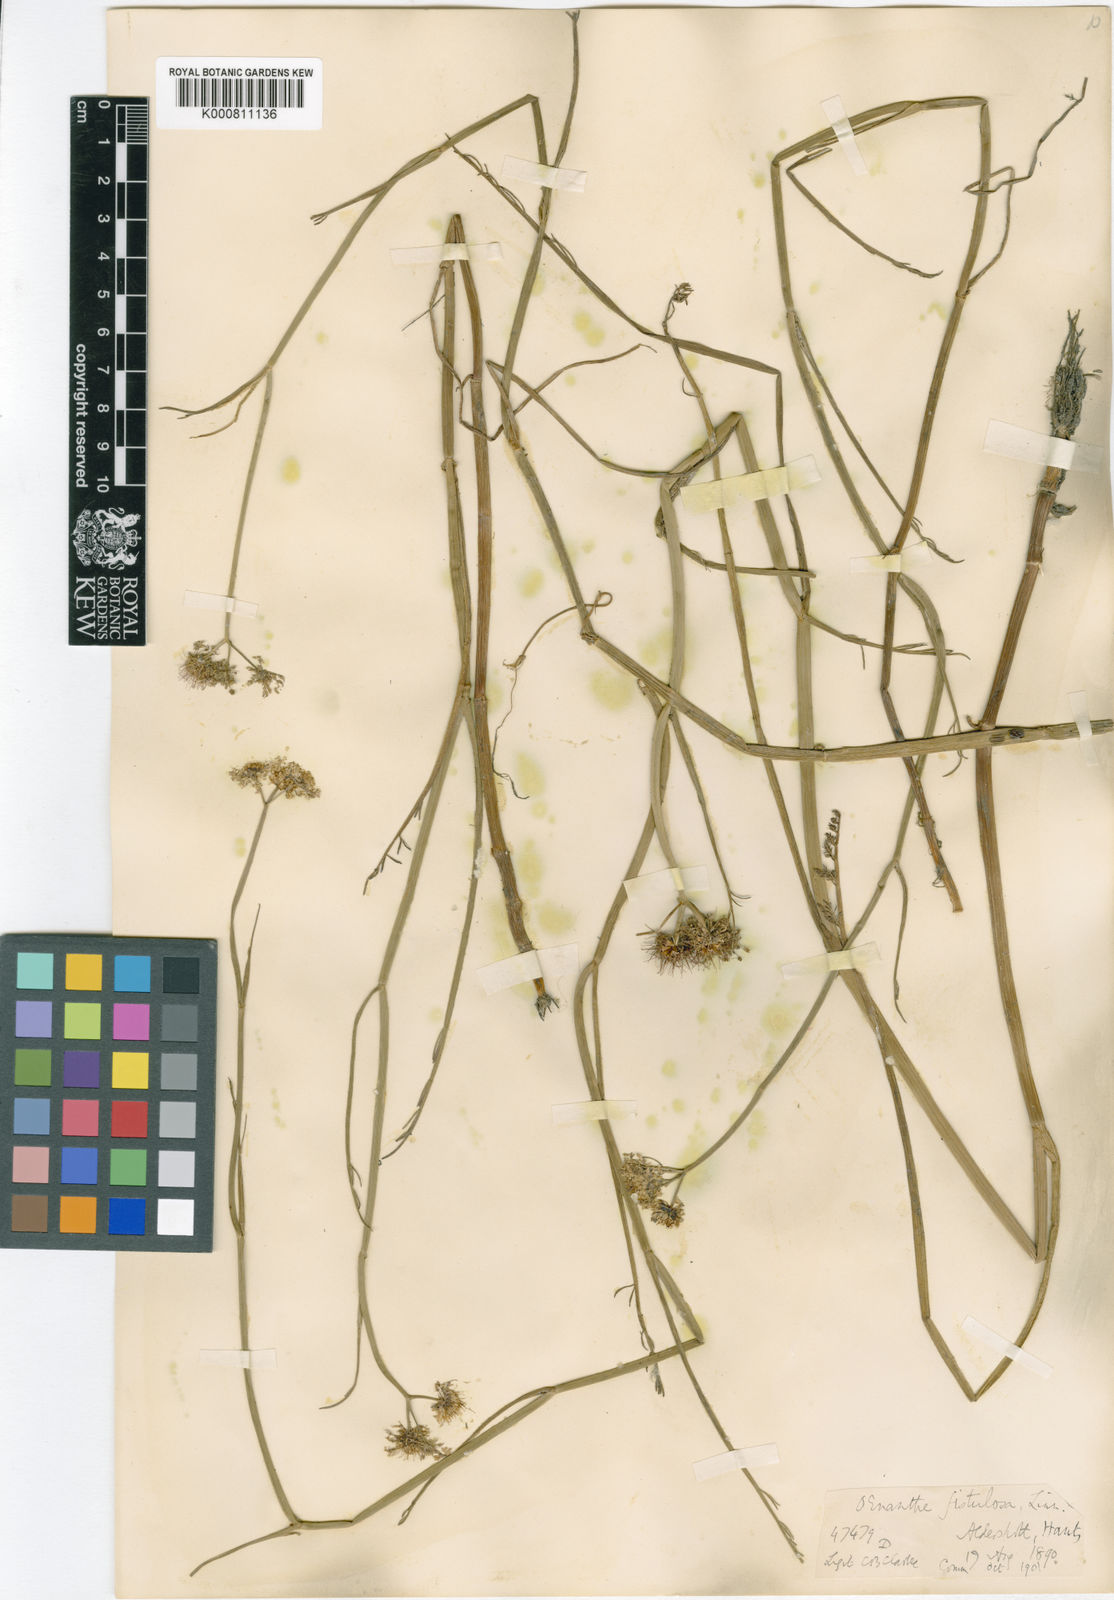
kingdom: Plantae
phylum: Tracheophyta
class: Magnoliopsida
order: Apiales
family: Apiaceae
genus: Oenanthe
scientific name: Oenanthe fistulosa
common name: Tubular water-dropwort
